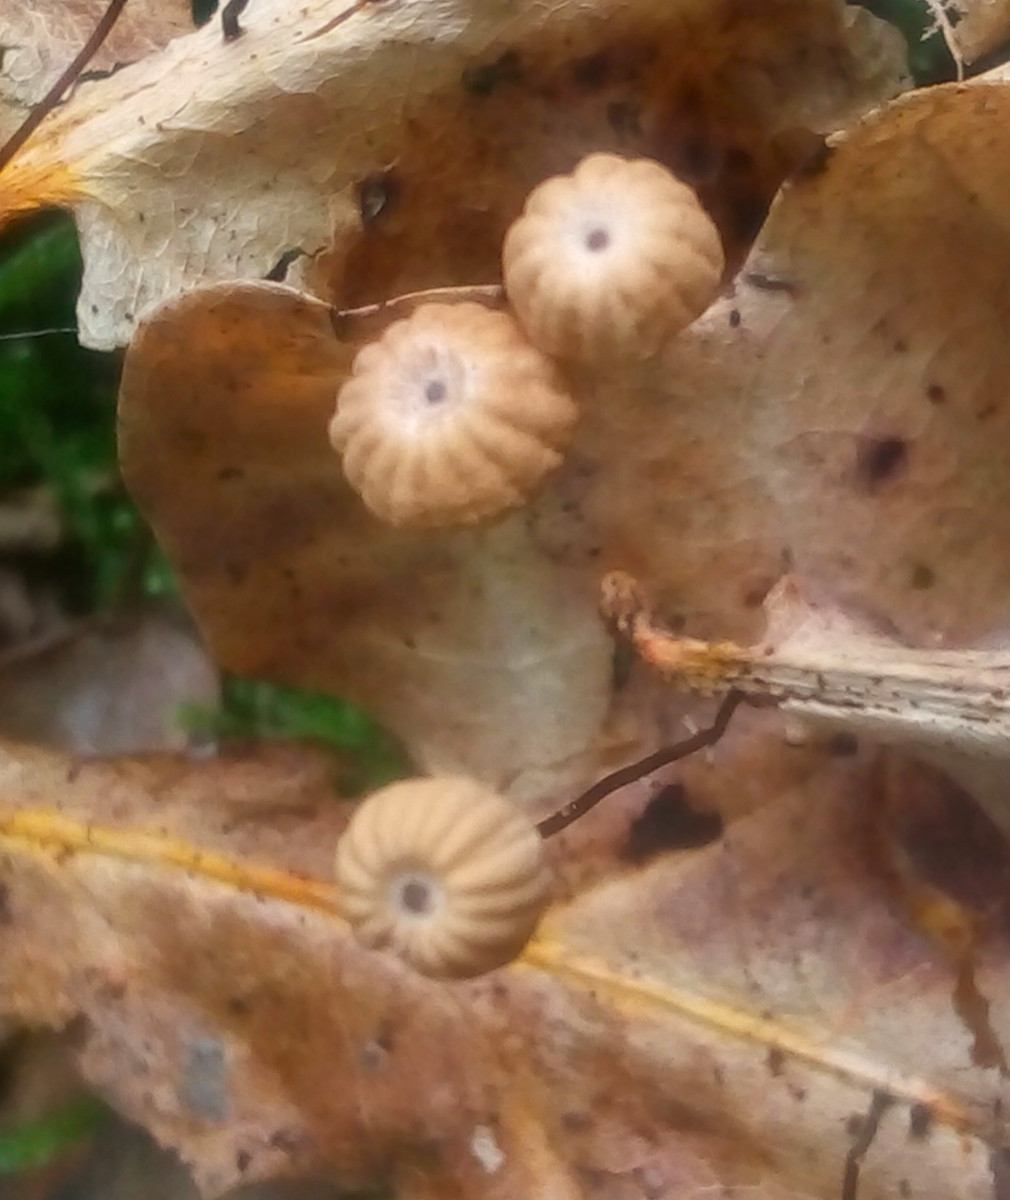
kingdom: Fungi
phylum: Basidiomycota
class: Agaricomycetes
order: Agaricales
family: Marasmiaceae
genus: Marasmius
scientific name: Marasmius bulliardii
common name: furet bruskhat
